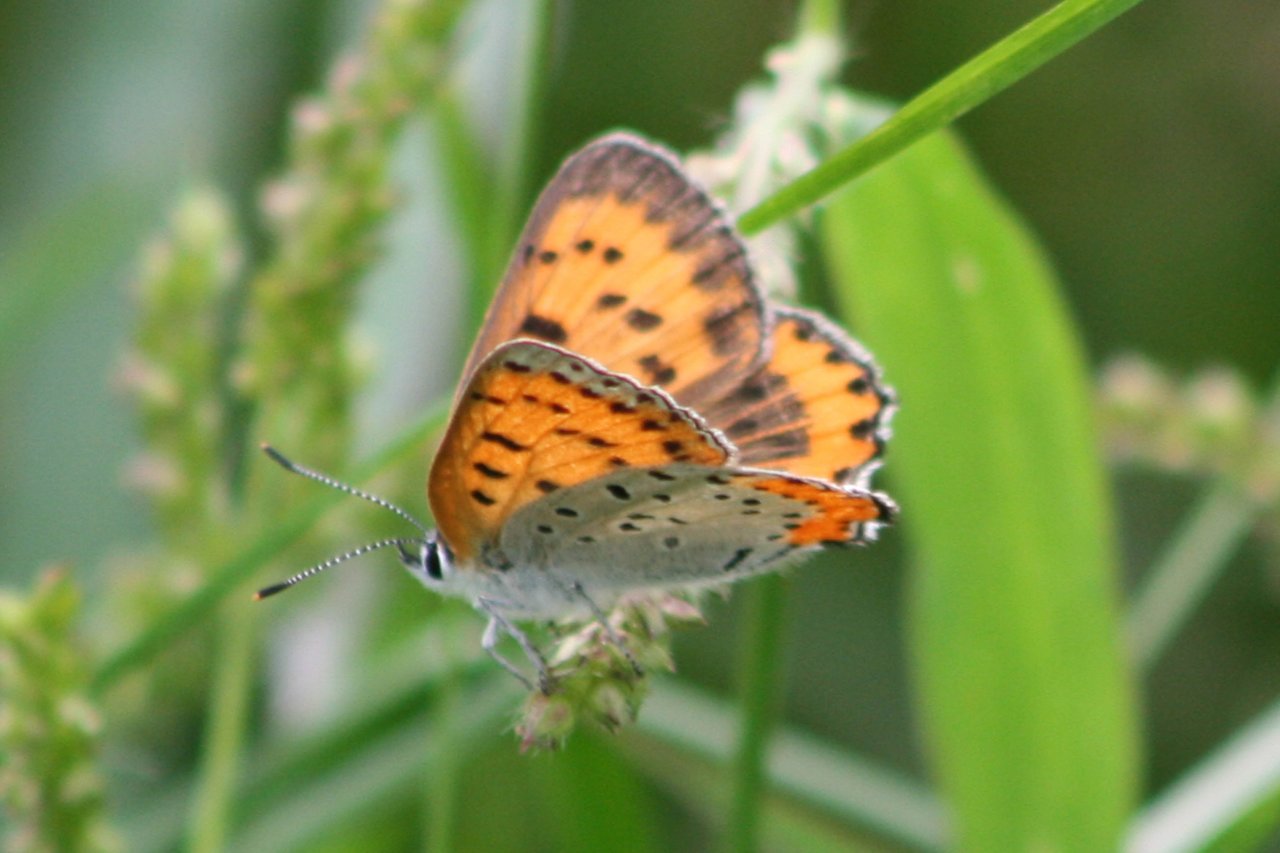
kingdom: Animalia
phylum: Arthropoda
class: Insecta
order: Lepidoptera
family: Sesiidae
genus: Sesia
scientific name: Sesia Lycaena hyllus
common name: Bronze Copper
